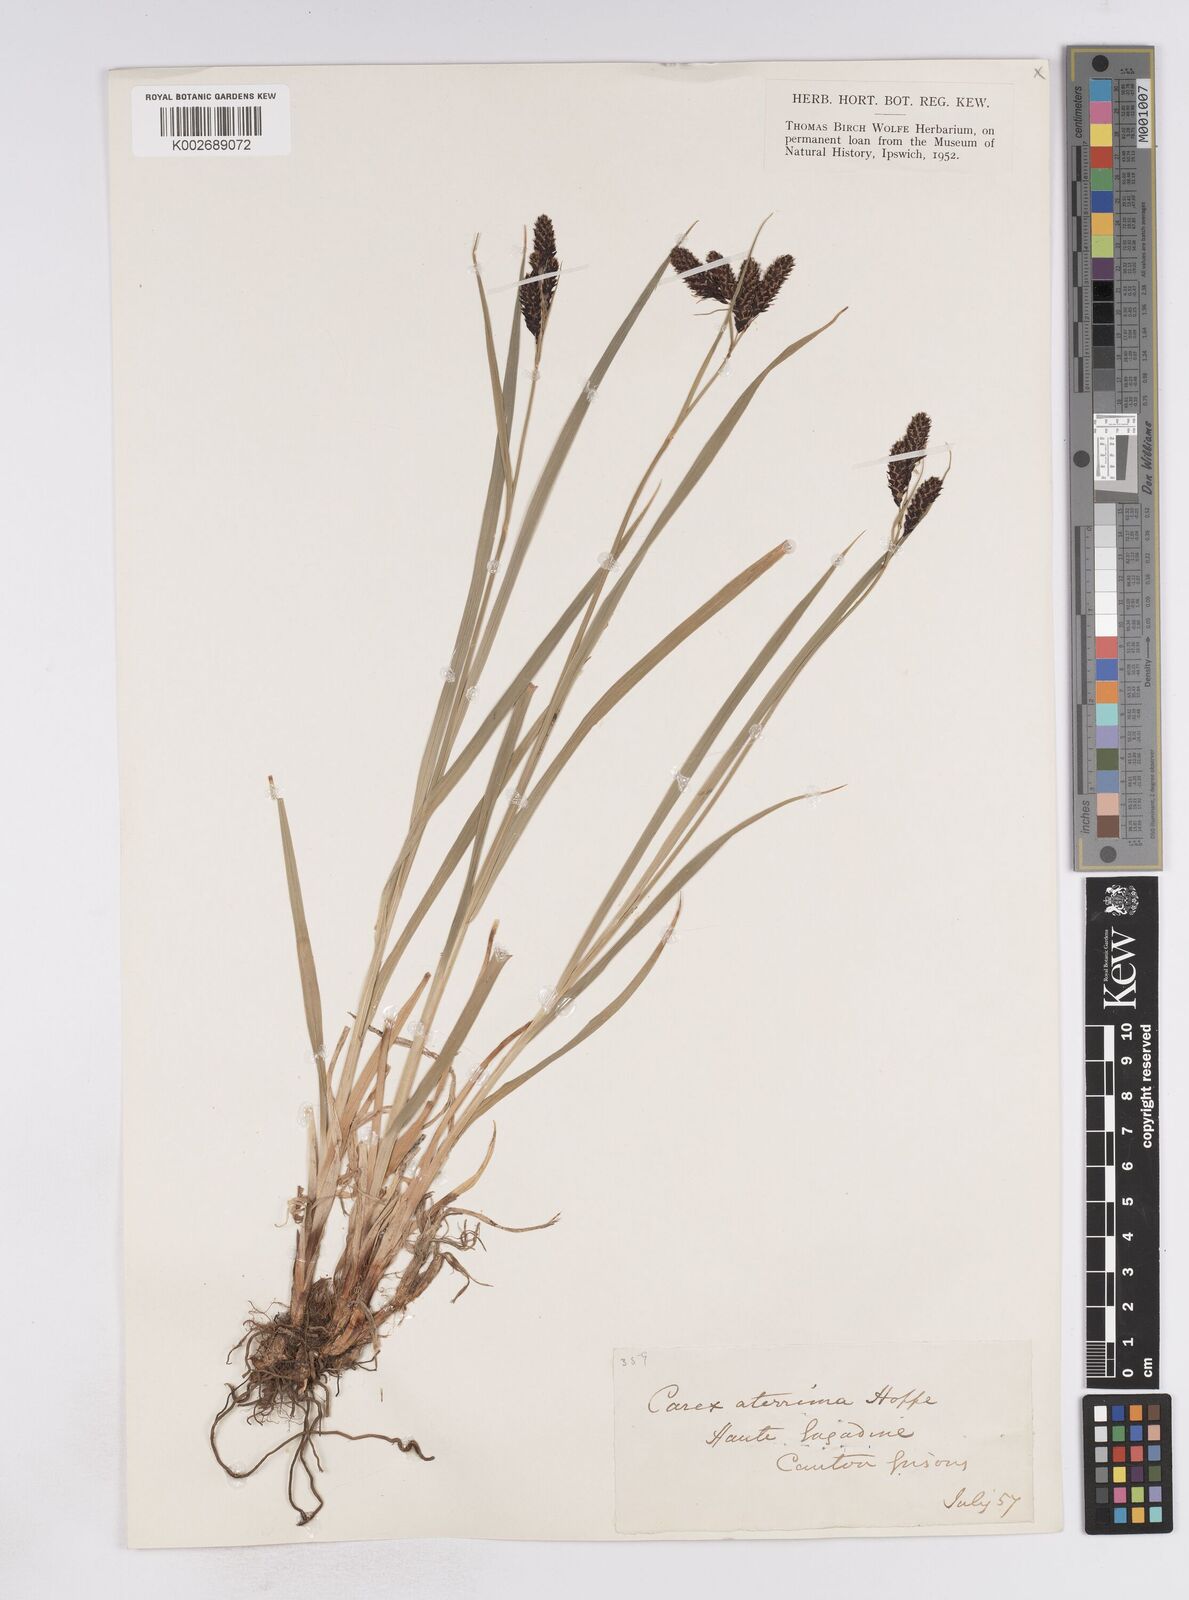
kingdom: Plantae
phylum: Tracheophyta
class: Liliopsida
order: Poales
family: Cyperaceae
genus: Carex
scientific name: Carex atrata
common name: Black alpine sedge
